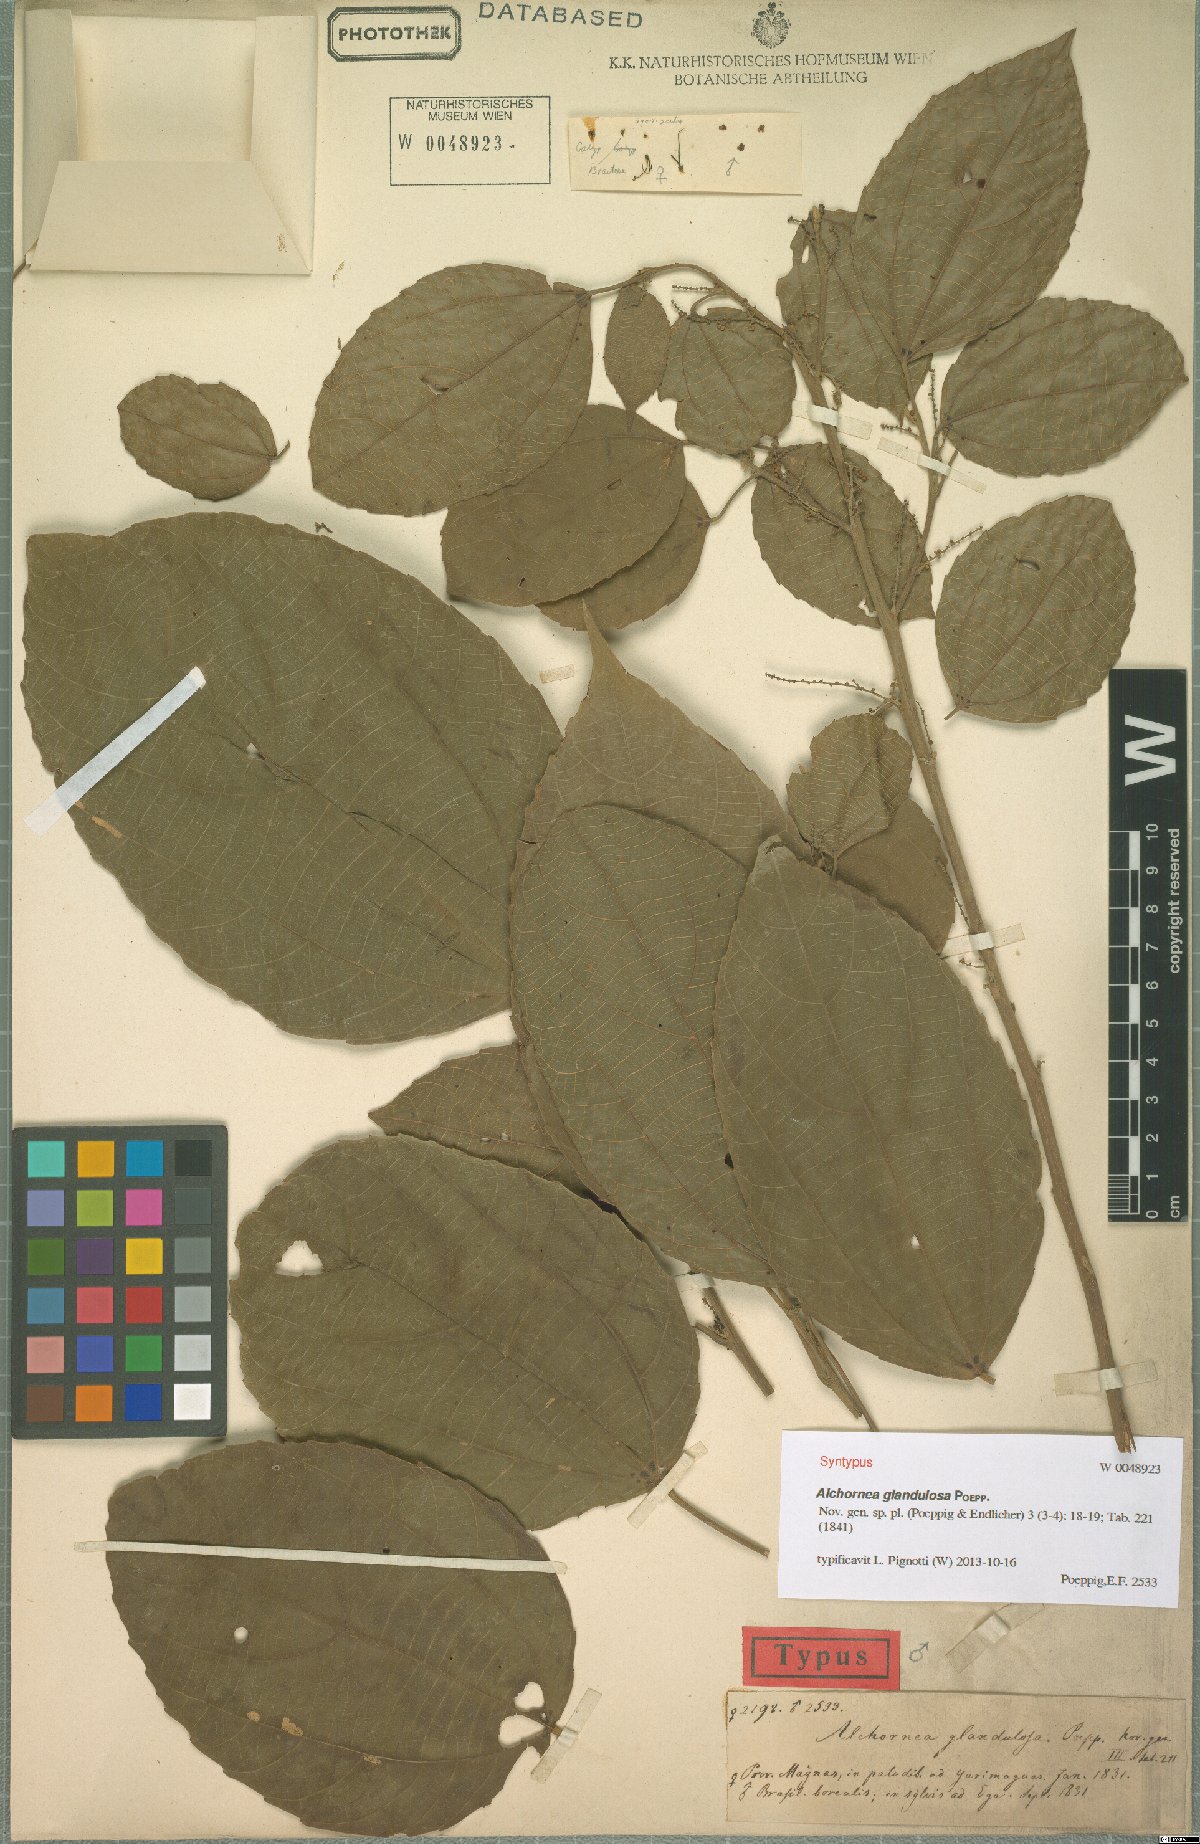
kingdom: Plantae
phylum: Tracheophyta
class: Magnoliopsida
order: Malpighiales
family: Euphorbiaceae
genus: Alchornea
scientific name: Alchornea glandulosa
